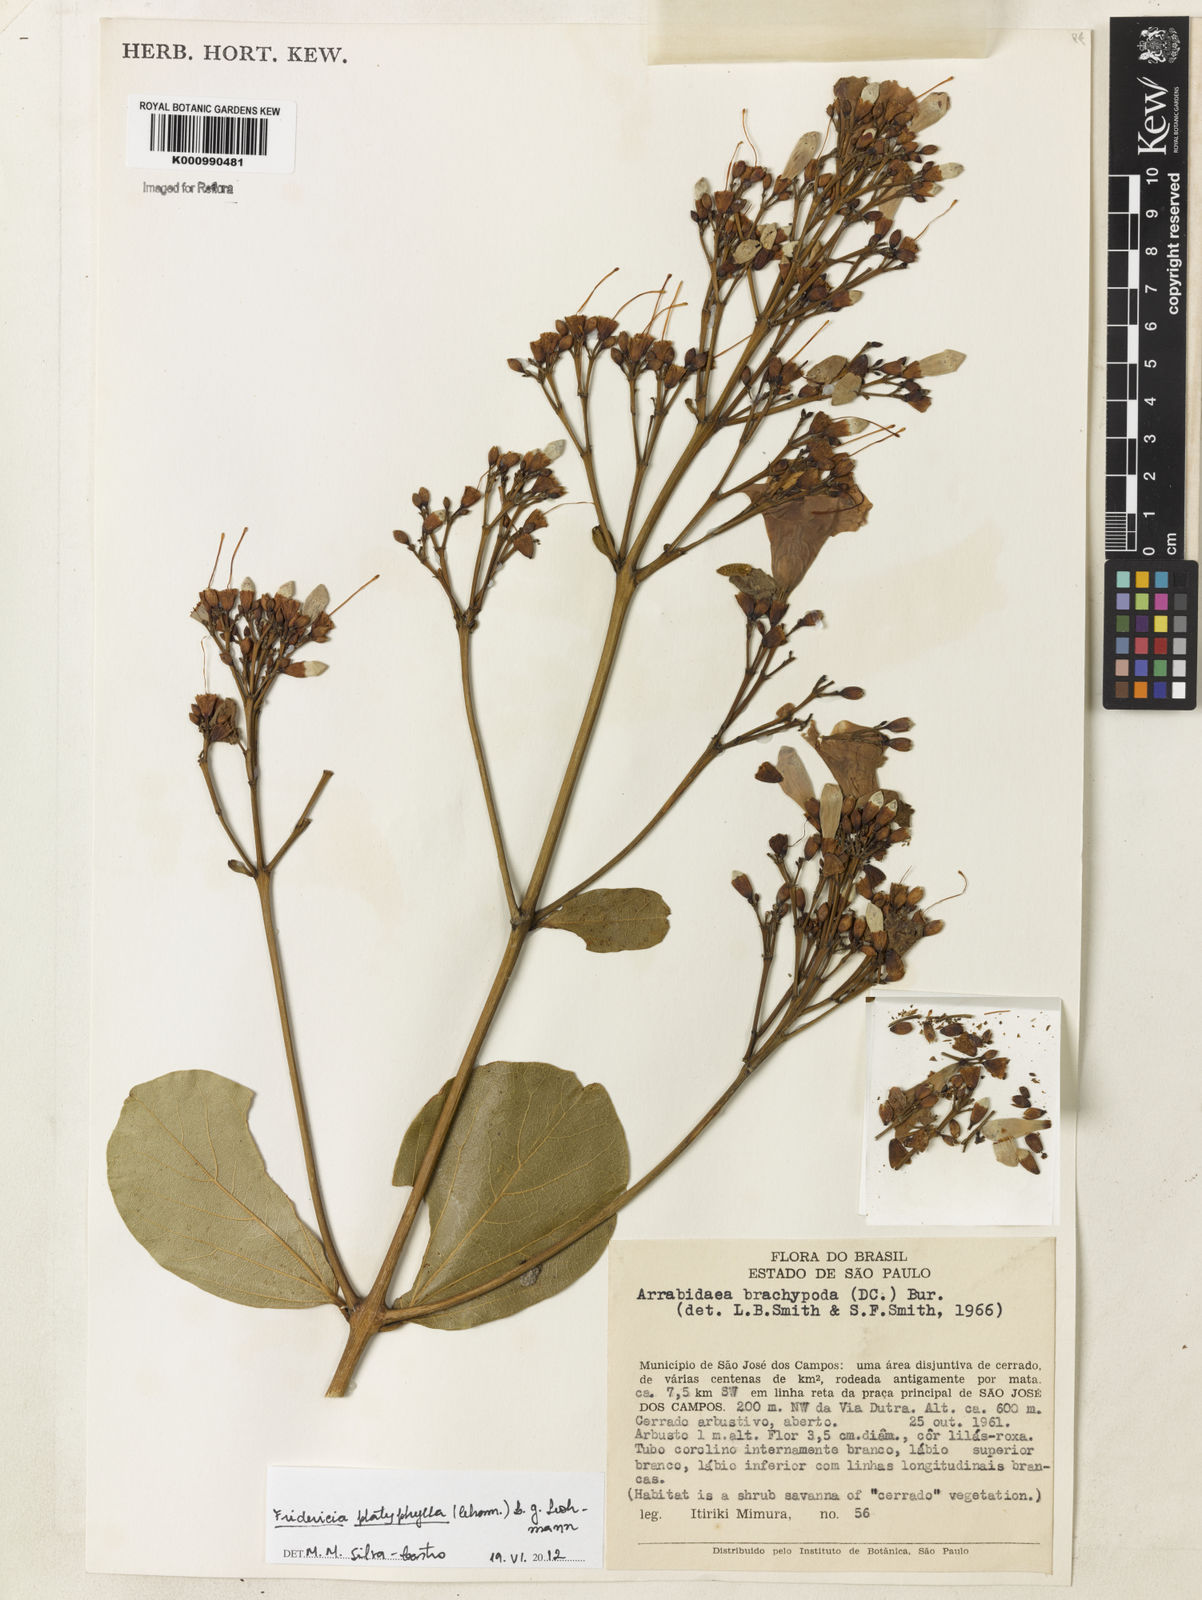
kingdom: Plantae
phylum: Tracheophyta
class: Magnoliopsida
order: Lamiales
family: Bignoniaceae
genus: Fridericia
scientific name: Fridericia platyphylla
